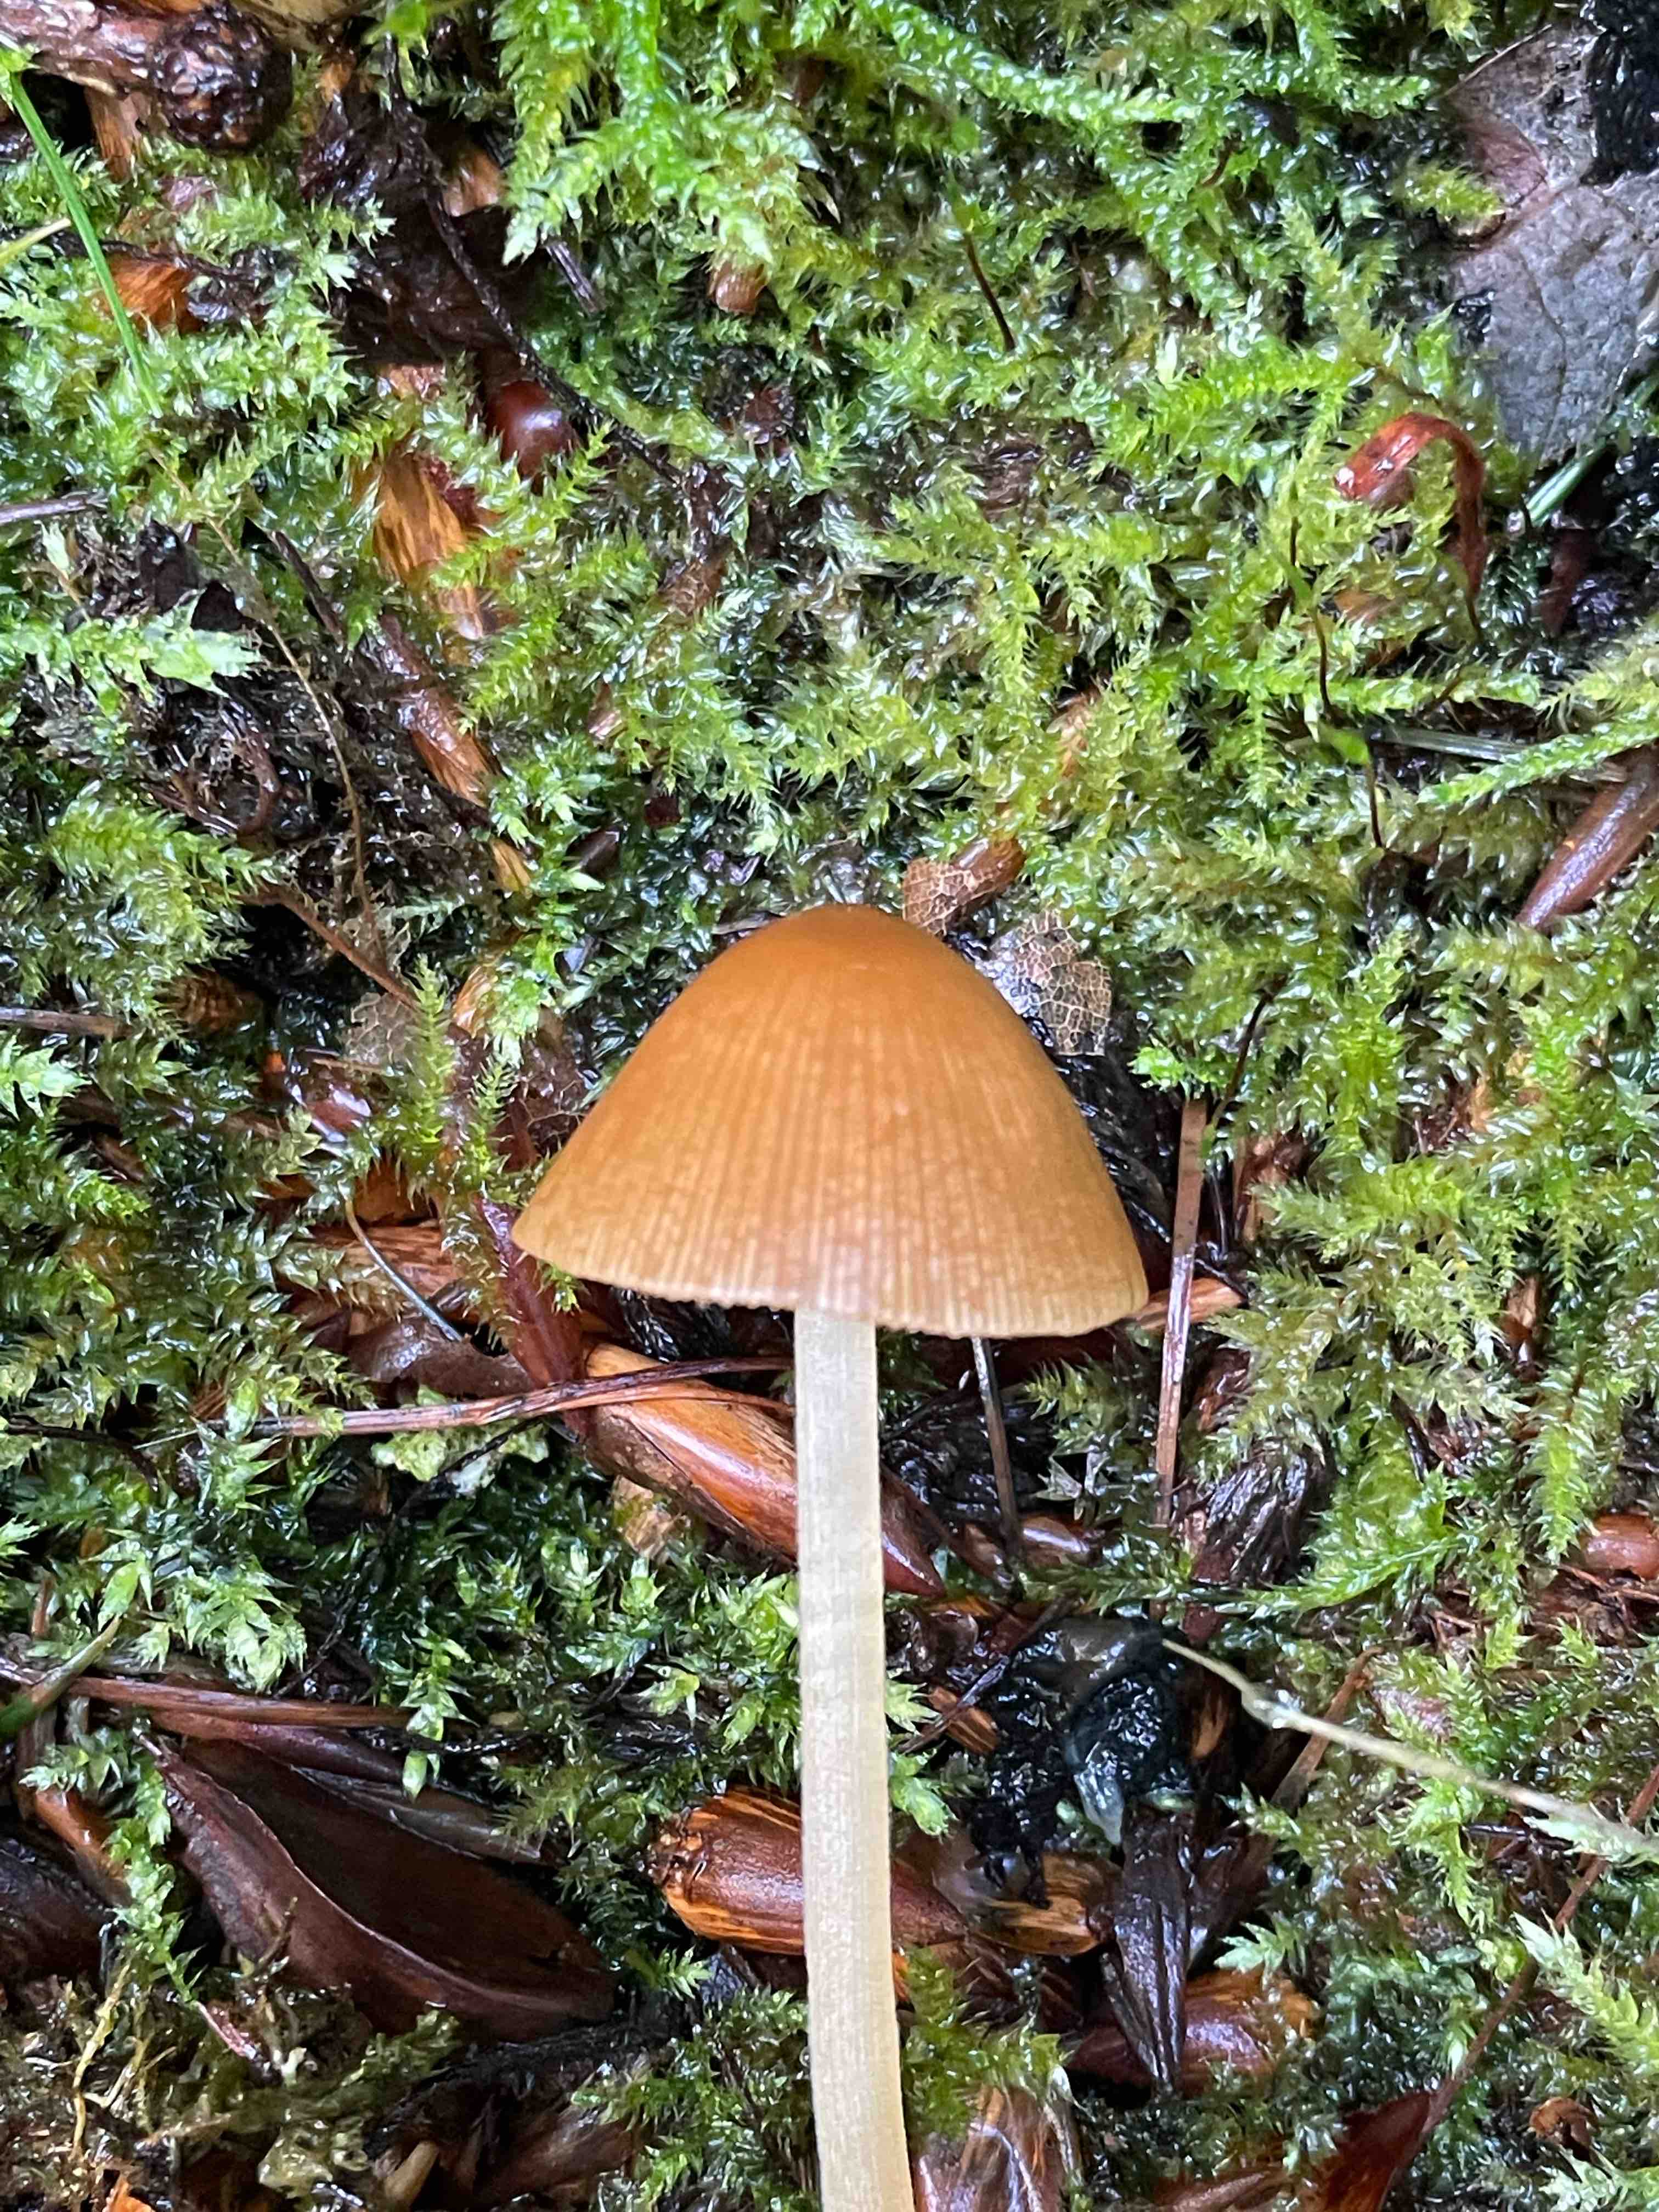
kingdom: Fungi
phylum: Basidiomycota
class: Agaricomycetes
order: Agaricales
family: Bolbitiaceae
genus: Conocybe
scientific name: Conocybe subpubescens
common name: krat-keglehat
